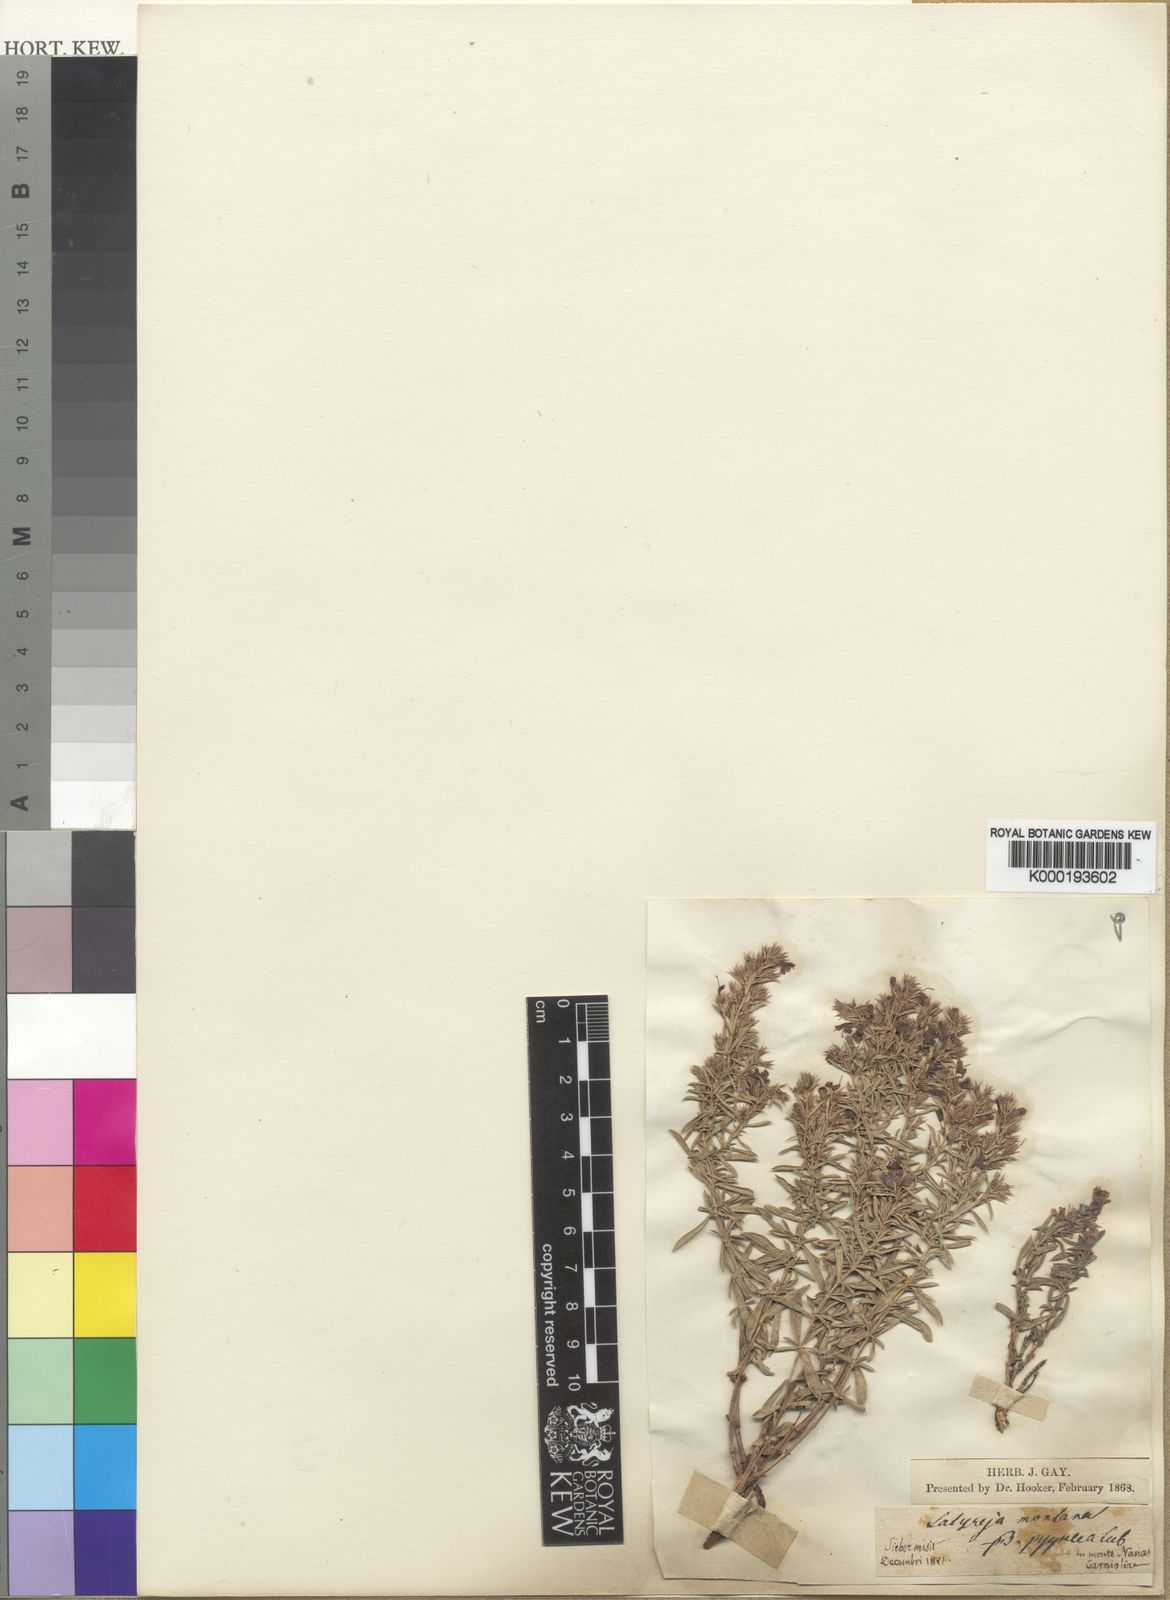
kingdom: Plantae
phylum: Tracheophyta
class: Magnoliopsida
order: Lamiales
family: Lamiaceae
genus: Satureja
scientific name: Satureja montana
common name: Winter savory
